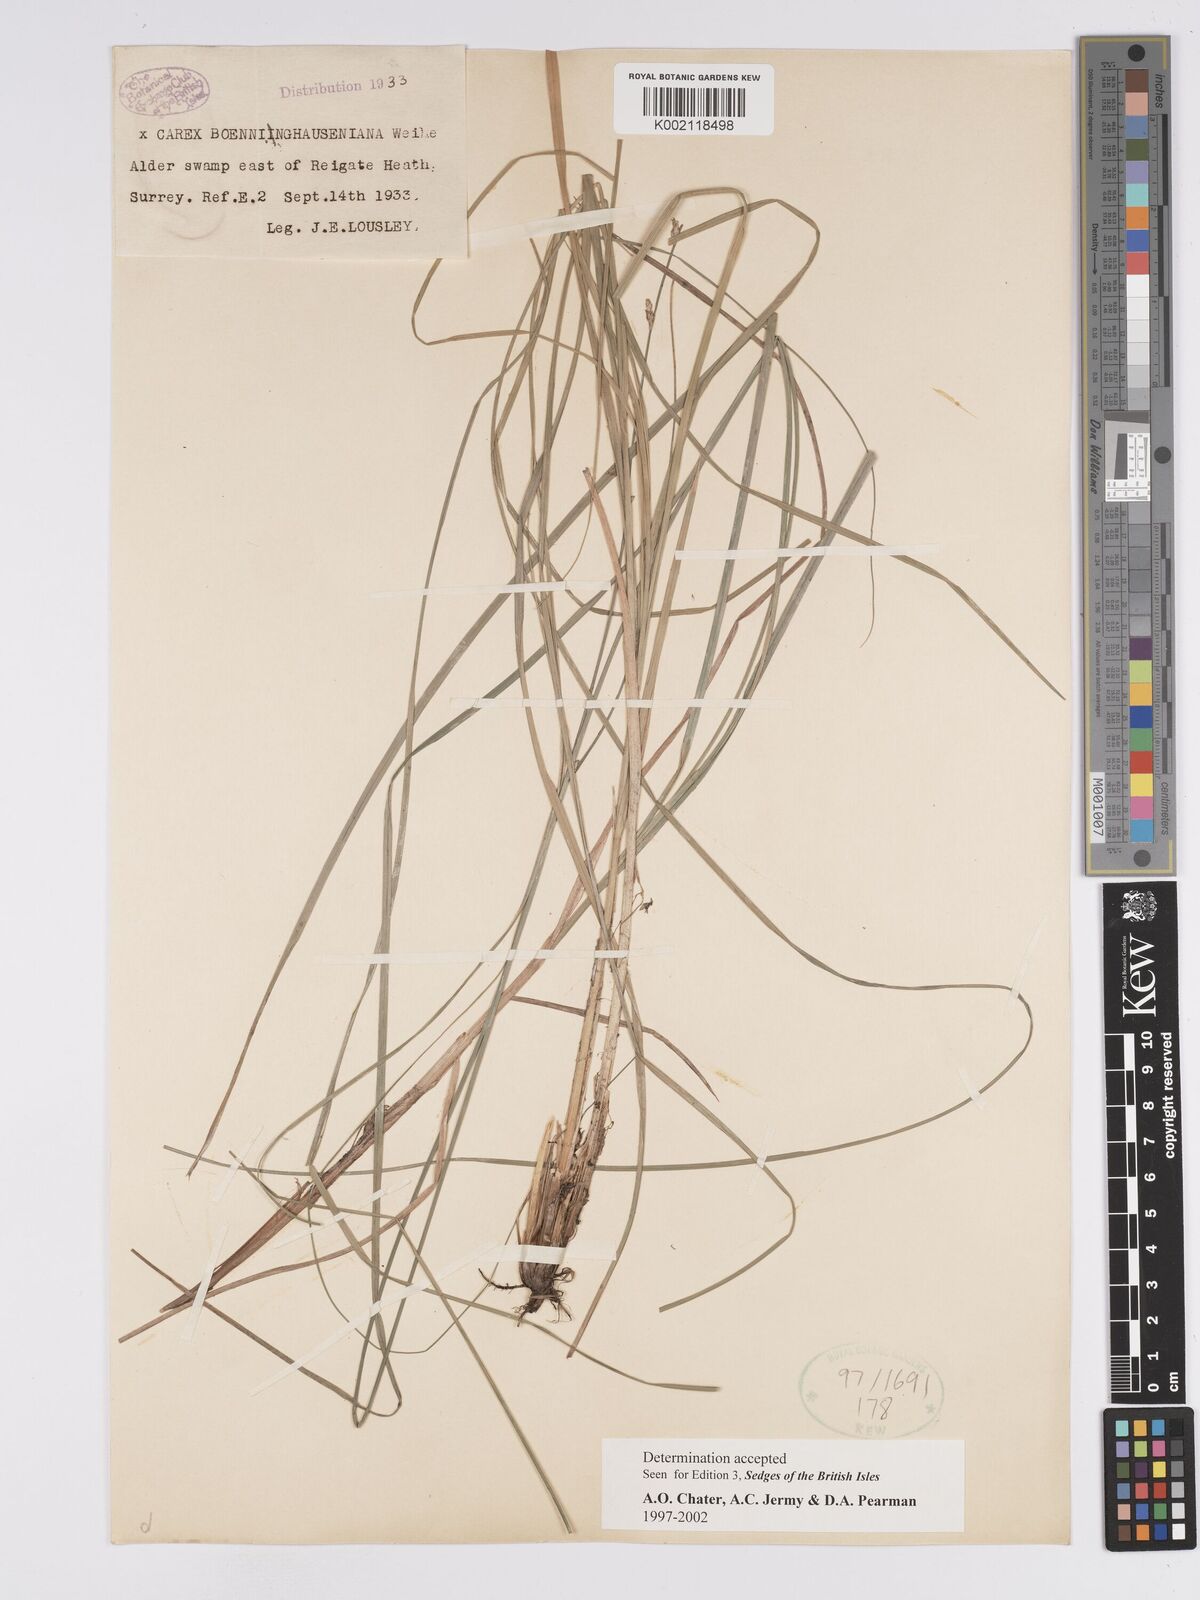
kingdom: Plantae
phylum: Tracheophyta
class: Liliopsida
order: Poales
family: Cyperaceae
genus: Carex
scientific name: Carex boenninghausiana
